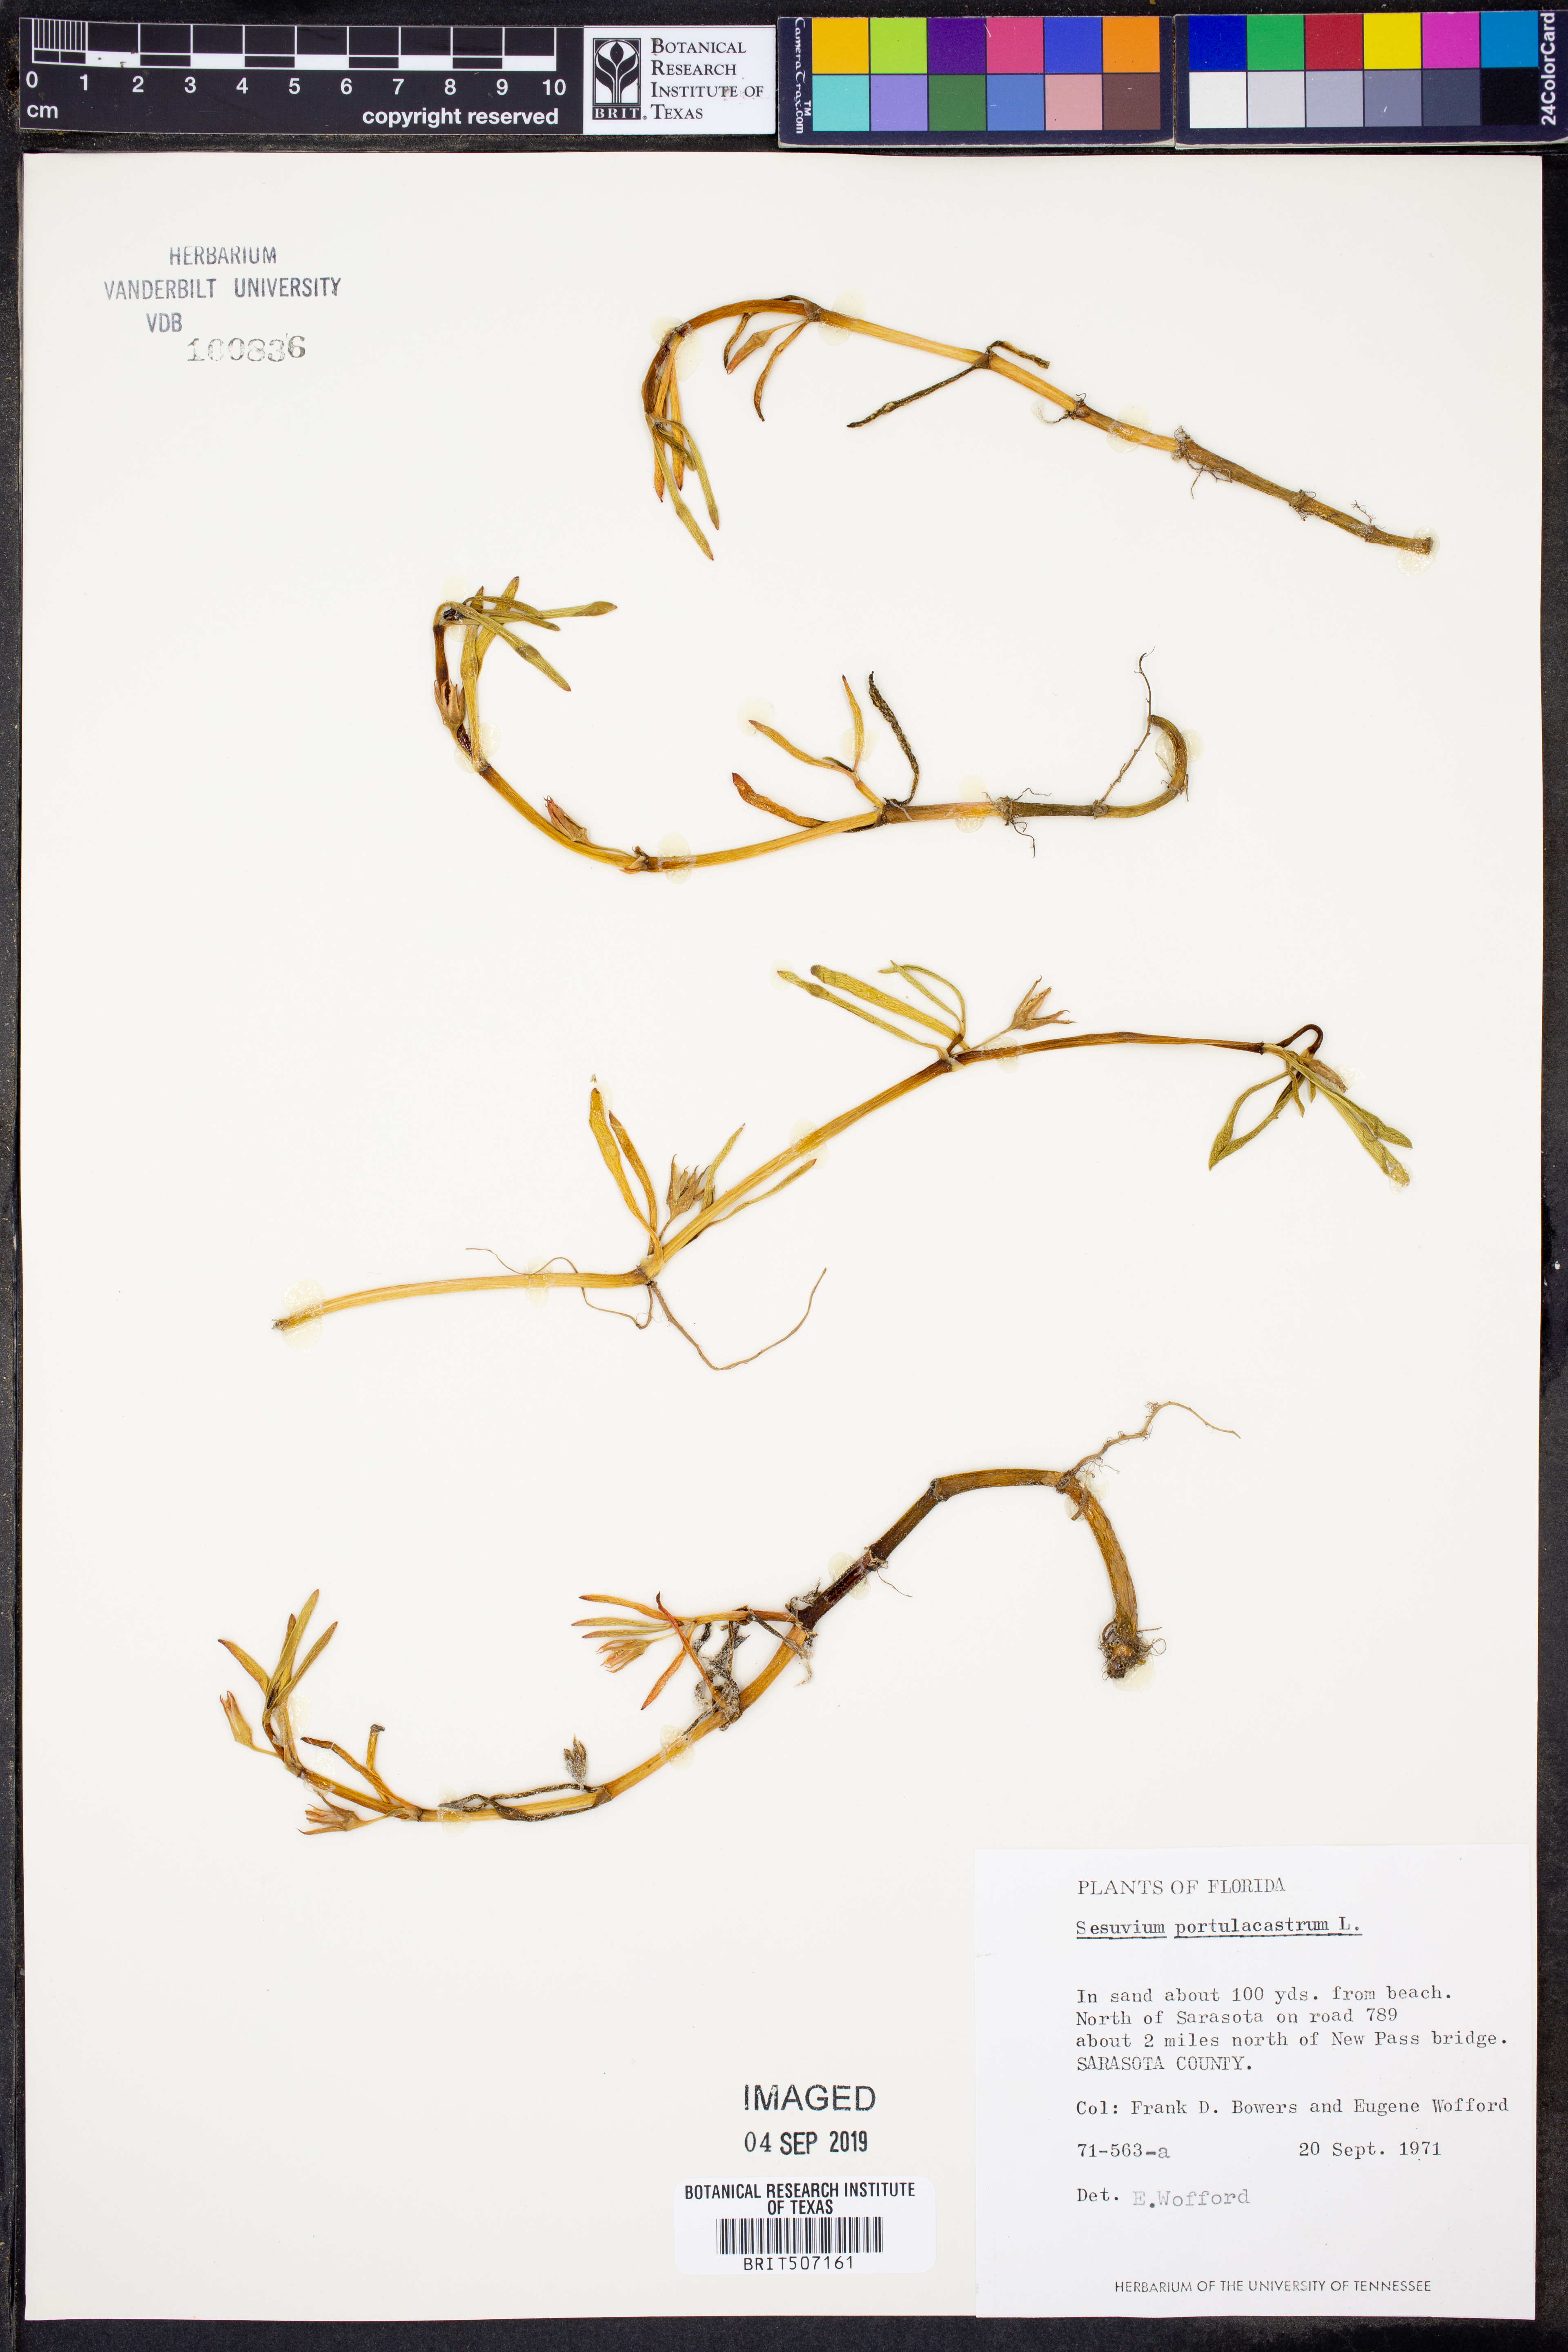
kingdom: Plantae
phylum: Tracheophyta
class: Magnoliopsida
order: Caryophyllales
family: Aizoaceae
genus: Sesuvium
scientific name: Sesuvium portulacastrum
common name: Sea-purslane
